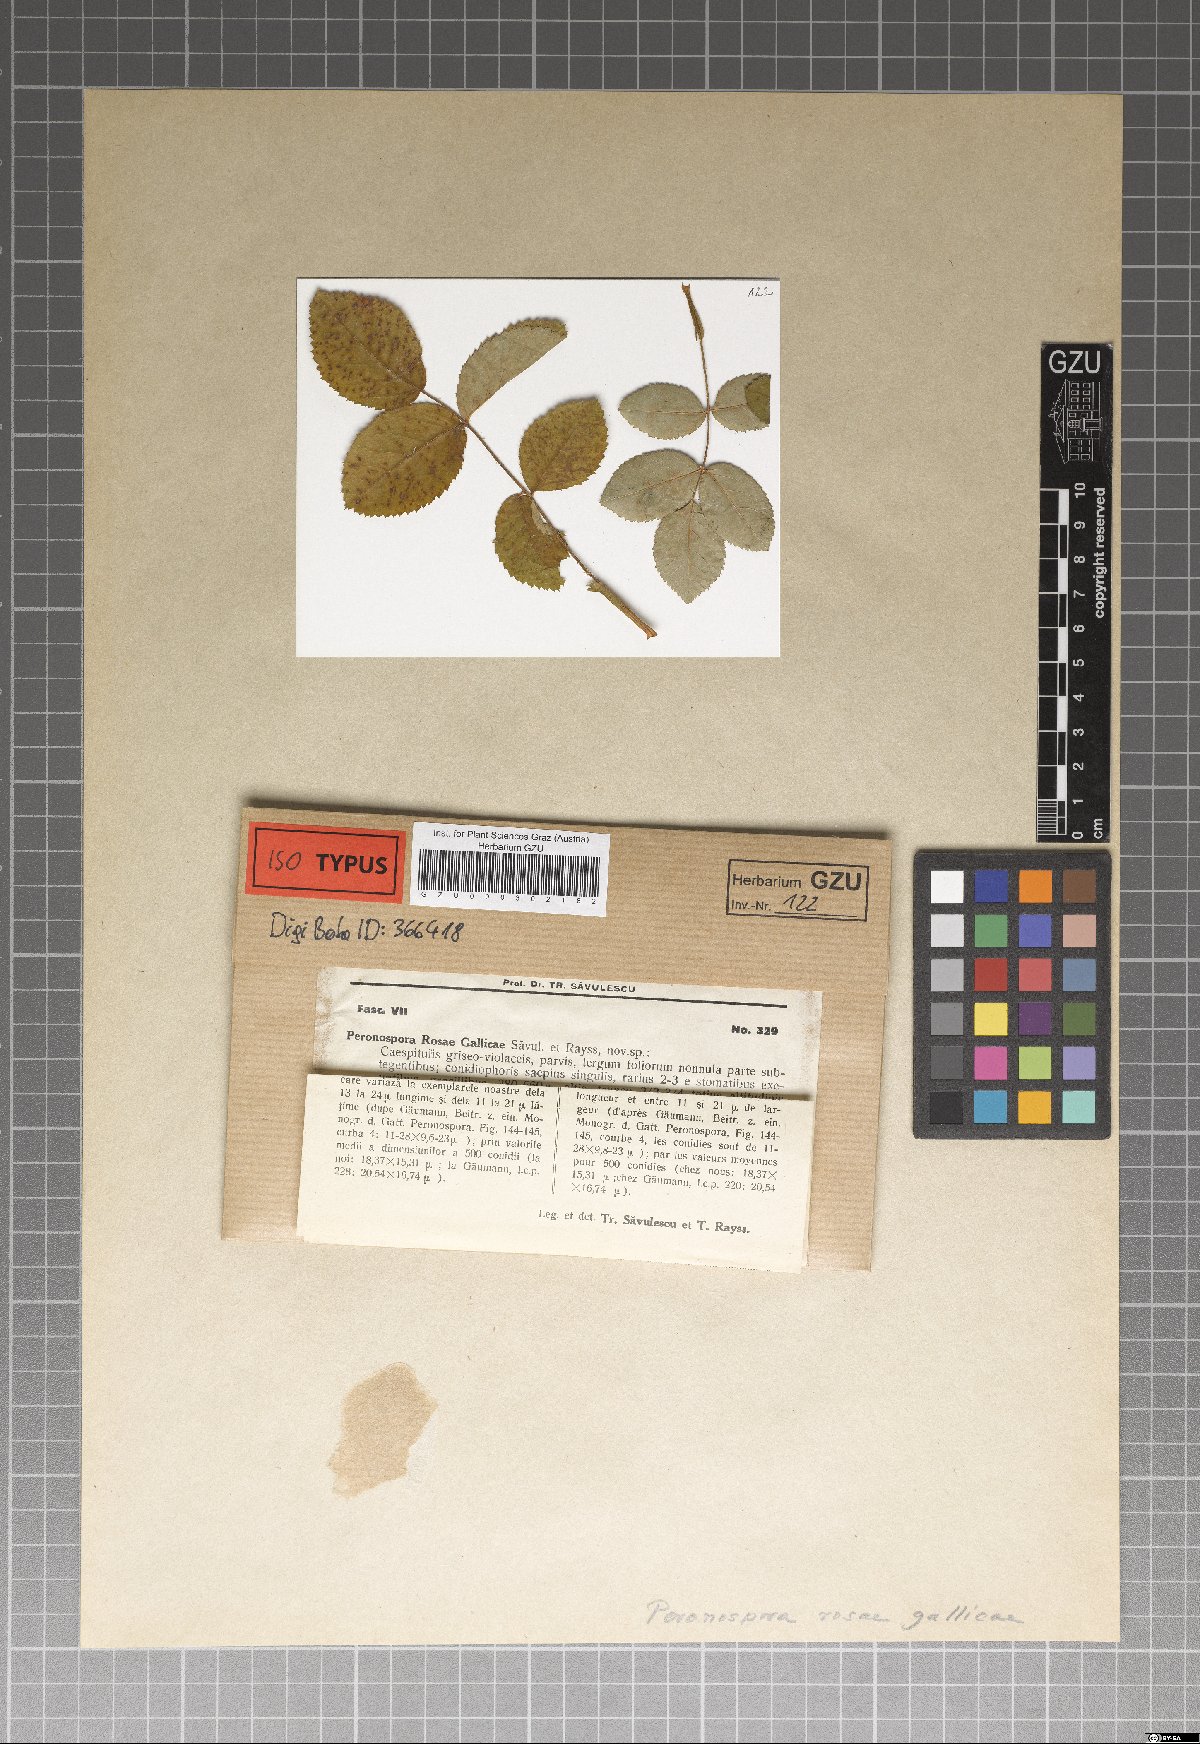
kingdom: Chromista
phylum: Oomycota
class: Peronosporea
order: Peronosporales
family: Peronosporaceae
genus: Peronospora
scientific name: Peronospora sparsa
